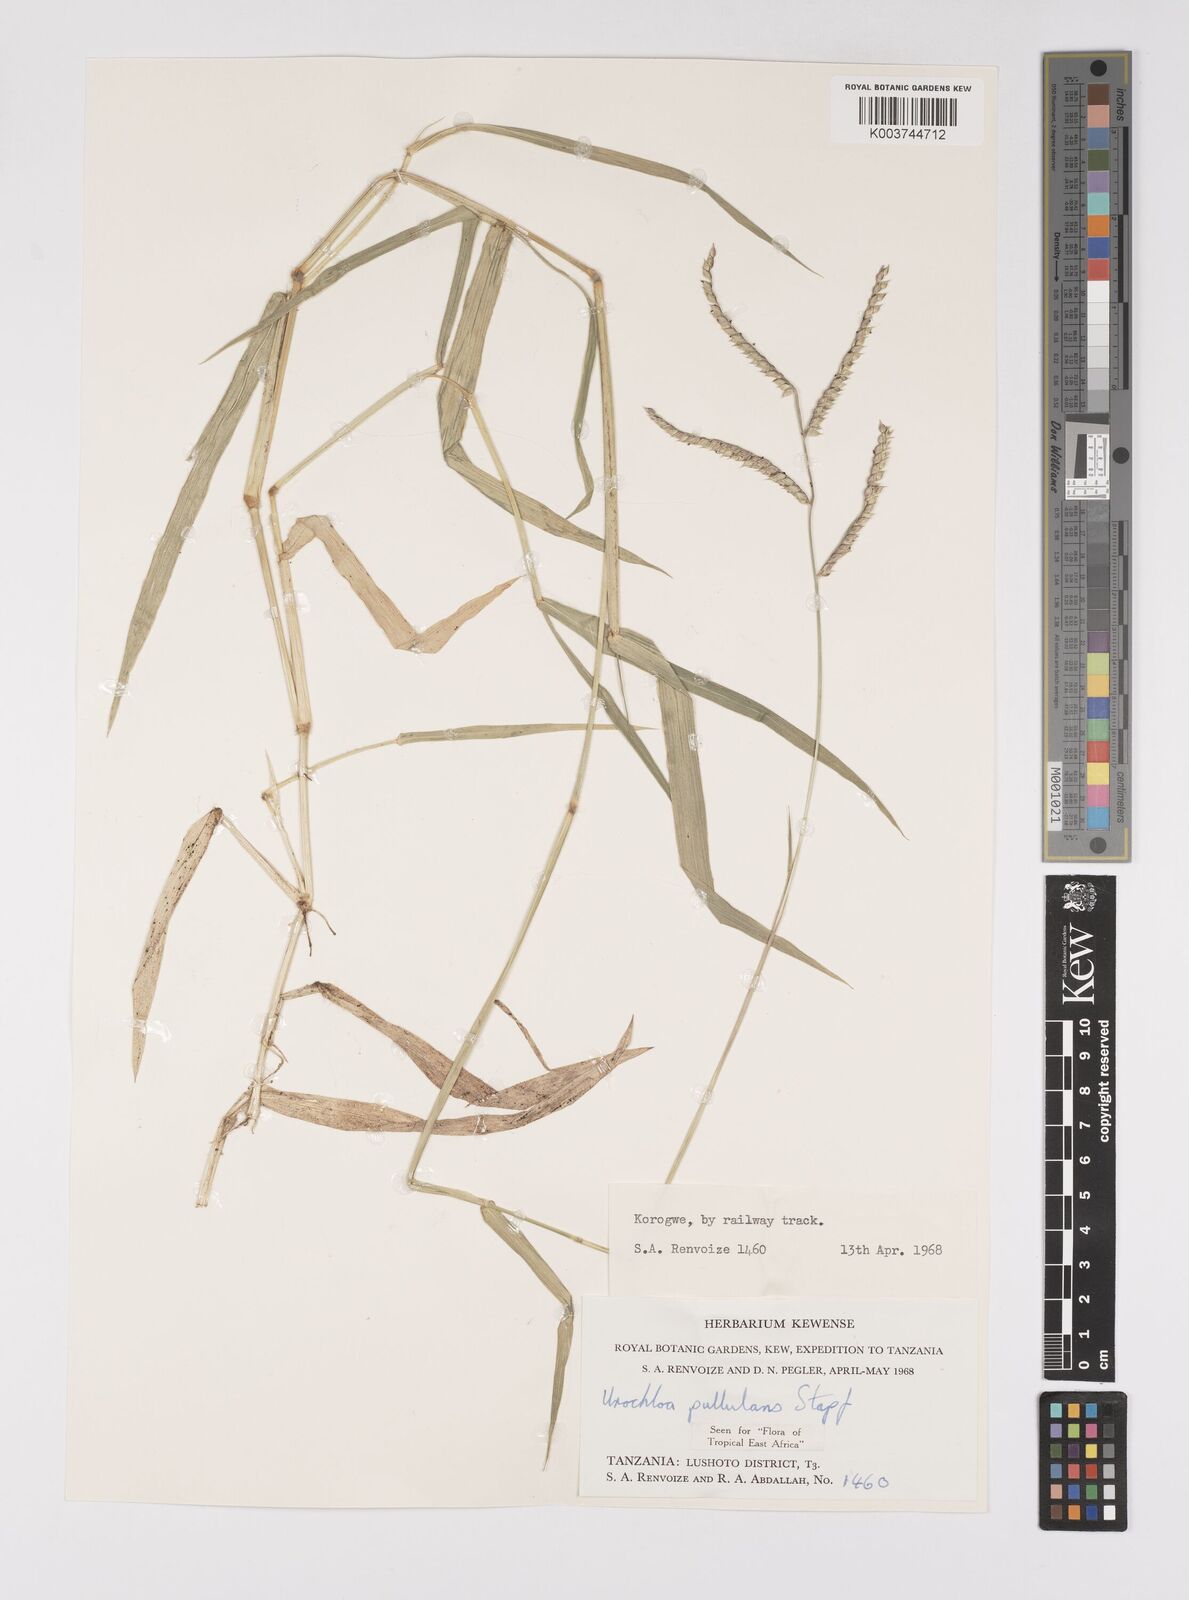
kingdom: Plantae
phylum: Tracheophyta
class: Liliopsida
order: Poales
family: Poaceae
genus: Urochloa
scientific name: Urochloa trichopus
